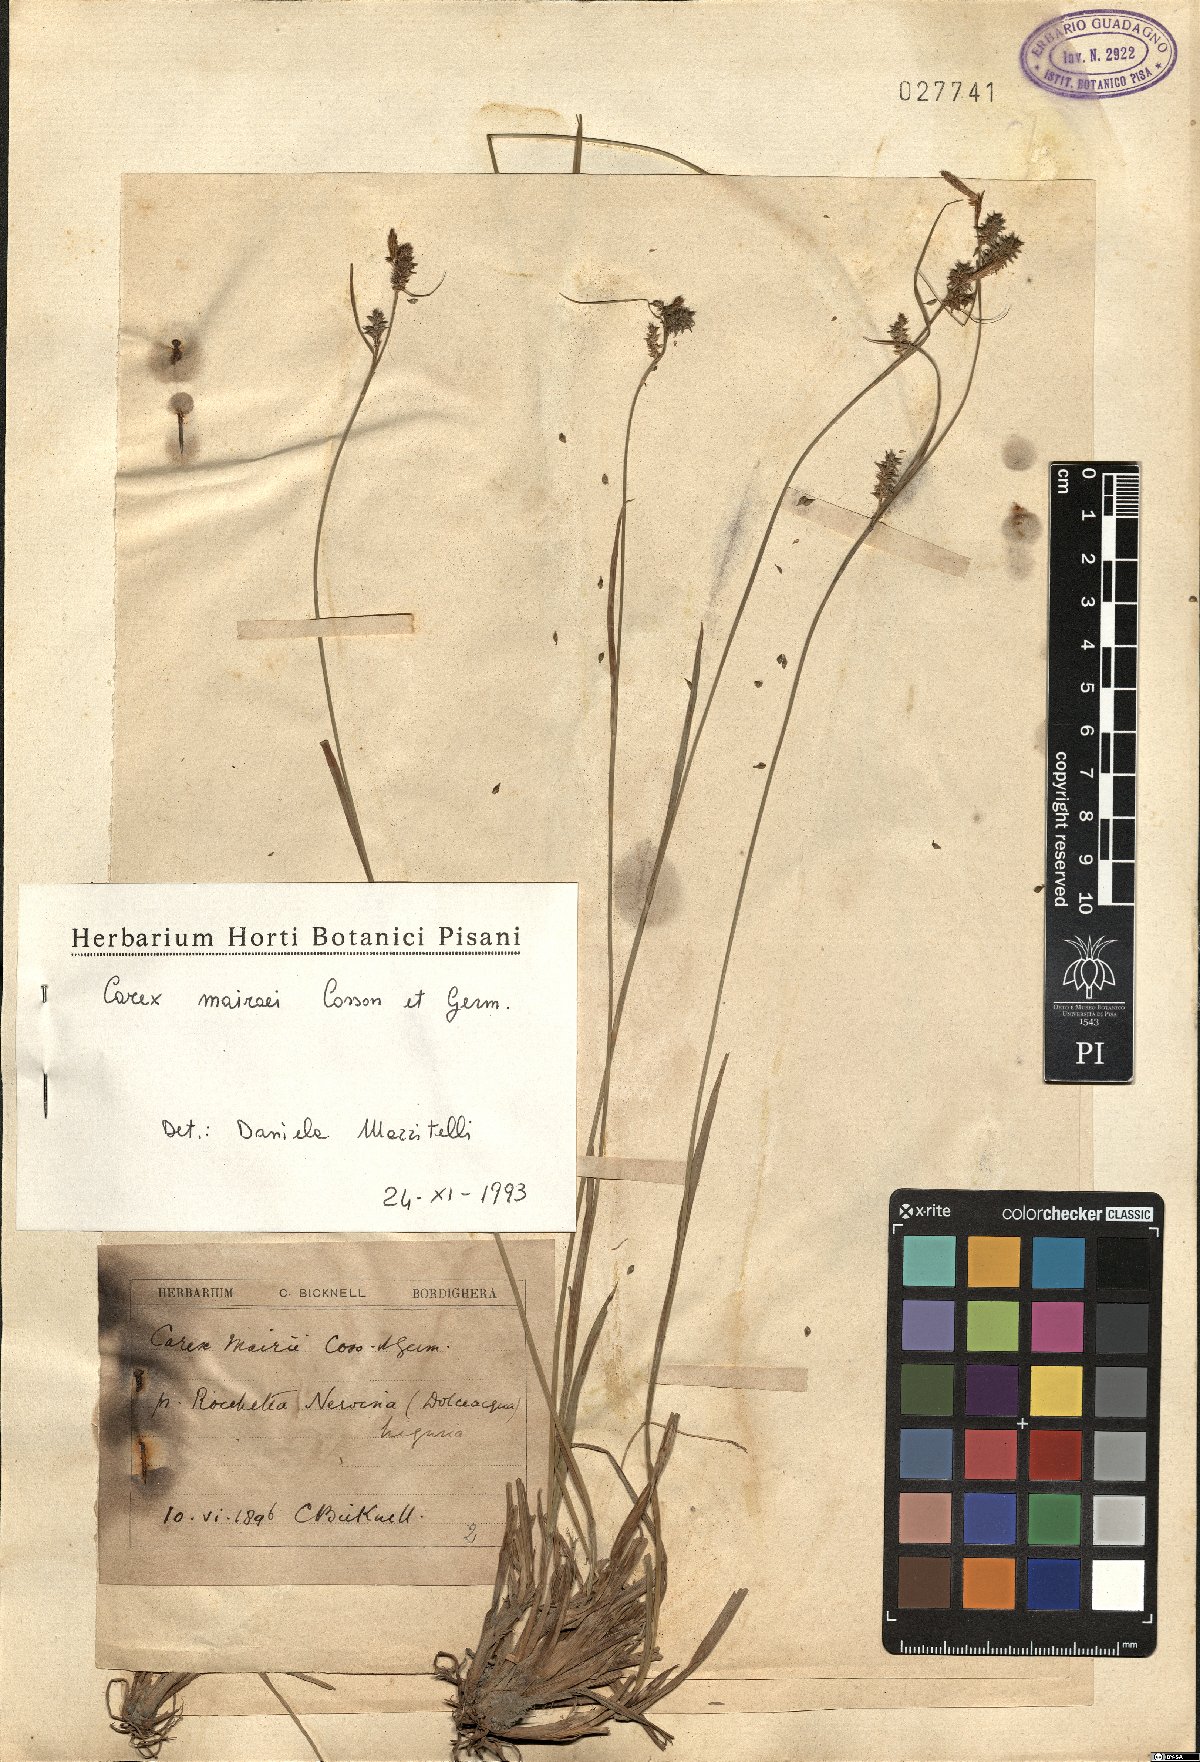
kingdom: Plantae
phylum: Tracheophyta
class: Liliopsida
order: Poales
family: Cyperaceae
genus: Carex
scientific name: Carex mairei
